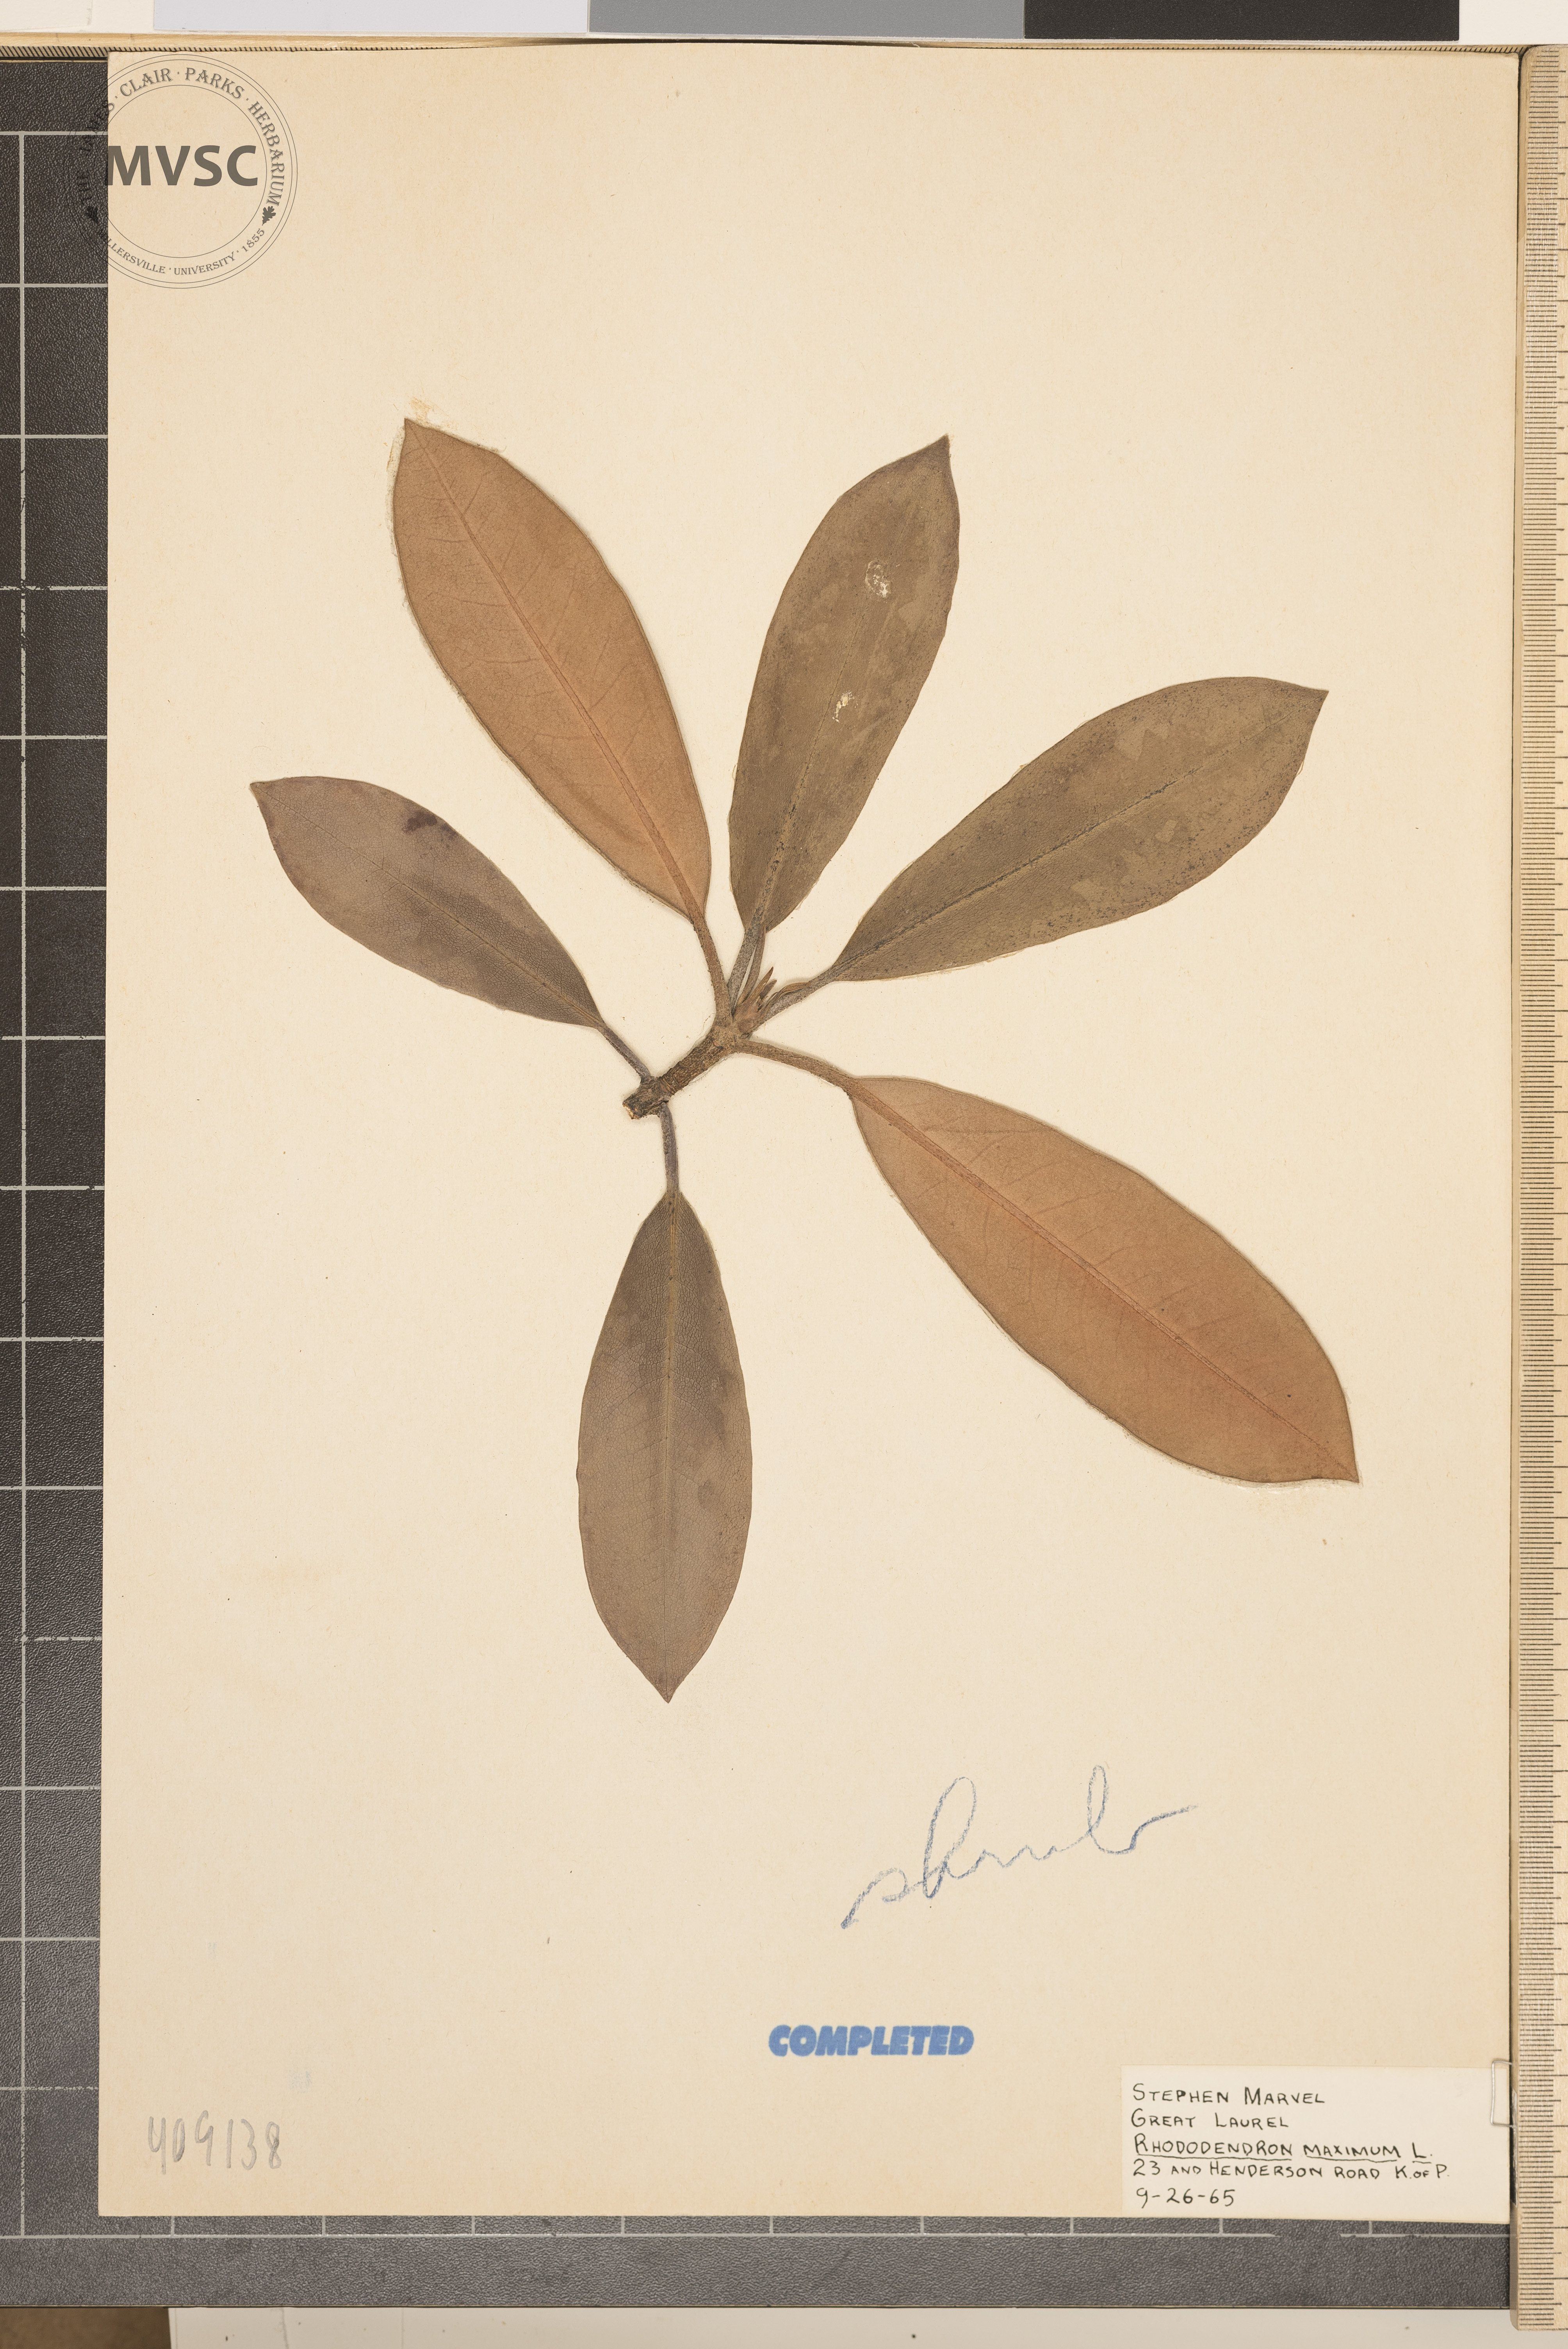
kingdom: Plantae
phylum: Tracheophyta
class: Magnoliopsida
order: Ericales
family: Ericaceae
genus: Rhododendron
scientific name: Rhododendron maximum
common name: Great rhododendron
